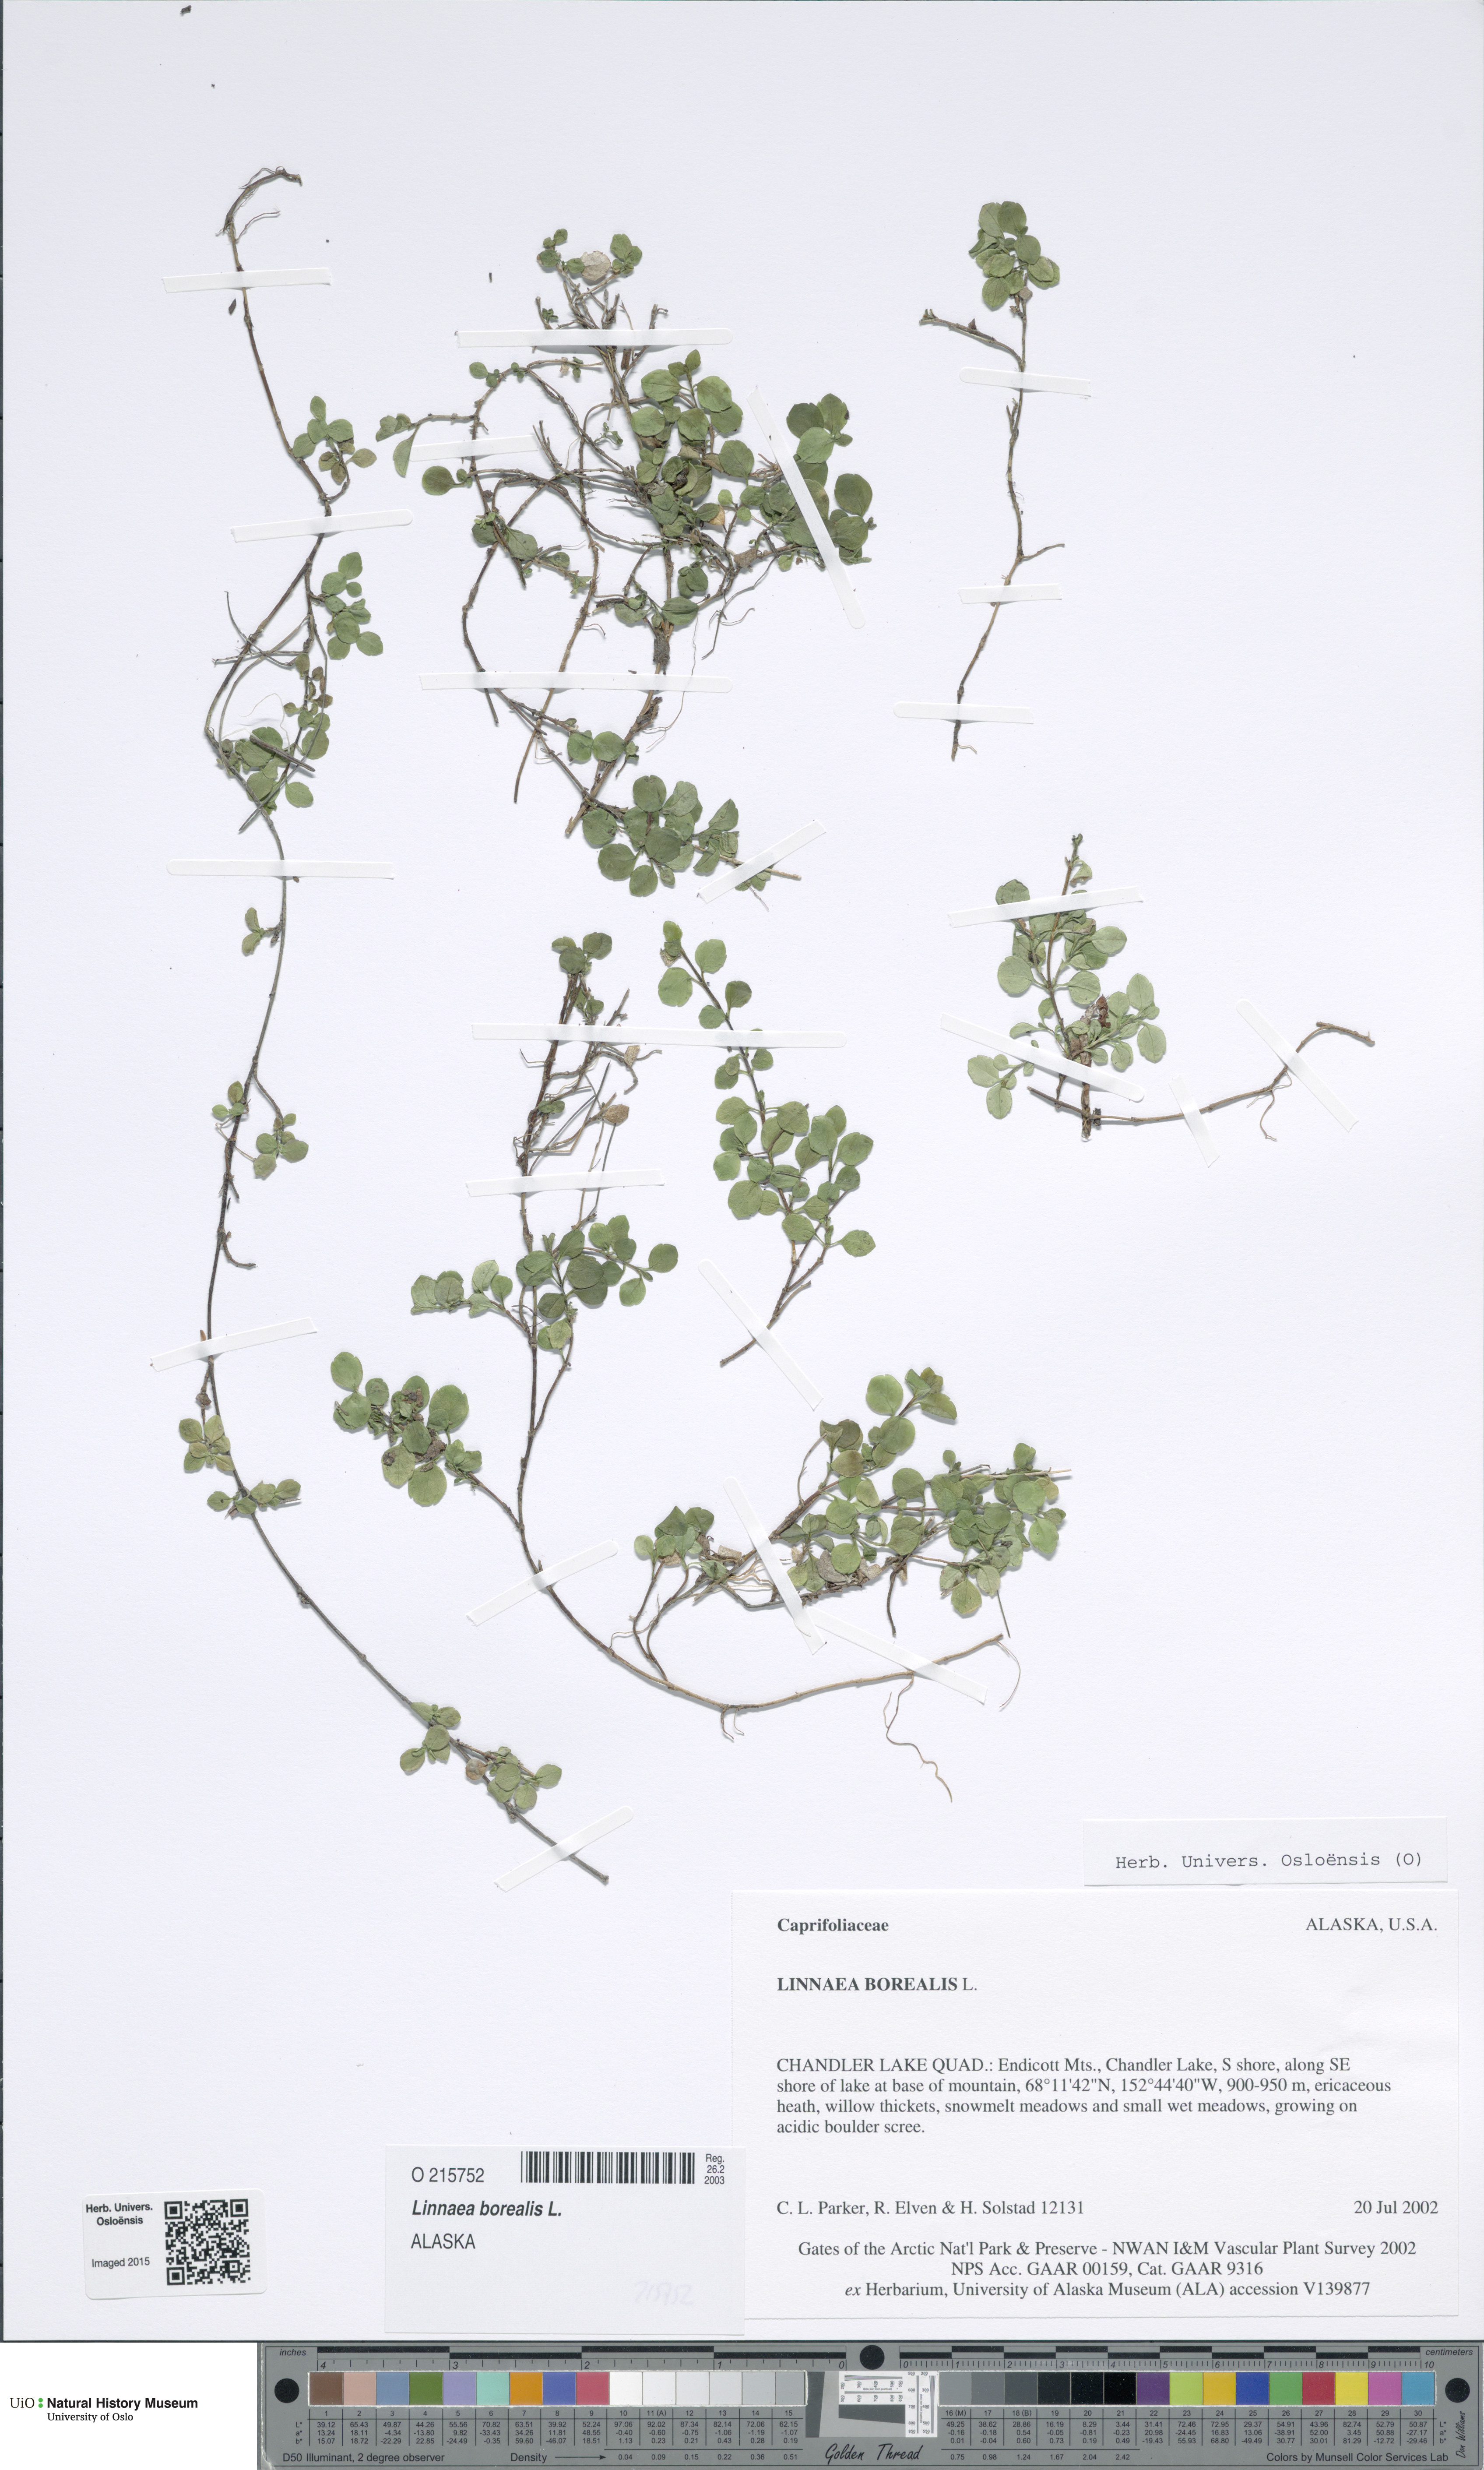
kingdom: Plantae
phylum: Tracheophyta
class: Magnoliopsida
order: Dipsacales
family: Caprifoliaceae
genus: Linnaea
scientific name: Linnaea borealis
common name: Twinflower
